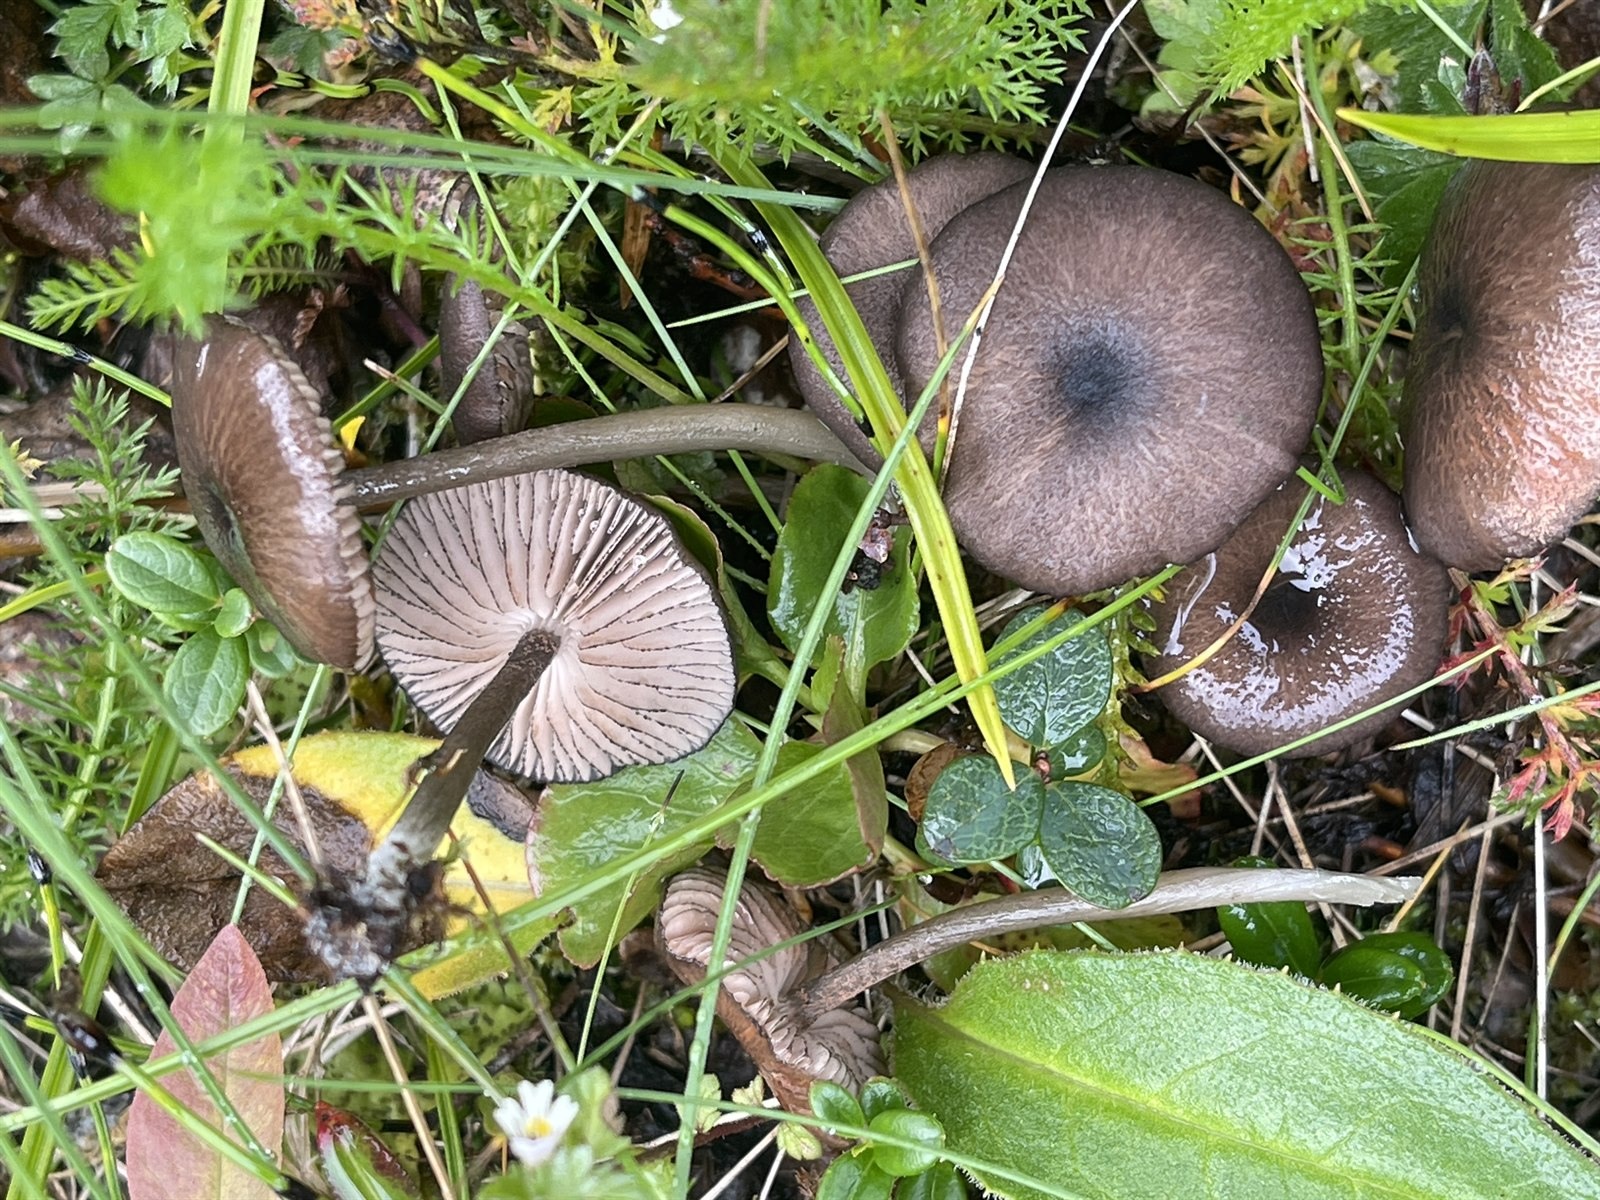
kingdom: Fungi
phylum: Basidiomycota
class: Agaricomycetes
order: Agaricales
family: Entolomataceae
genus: Entoloma
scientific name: Entoloma serrulatum
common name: Blue edge pinkgill
